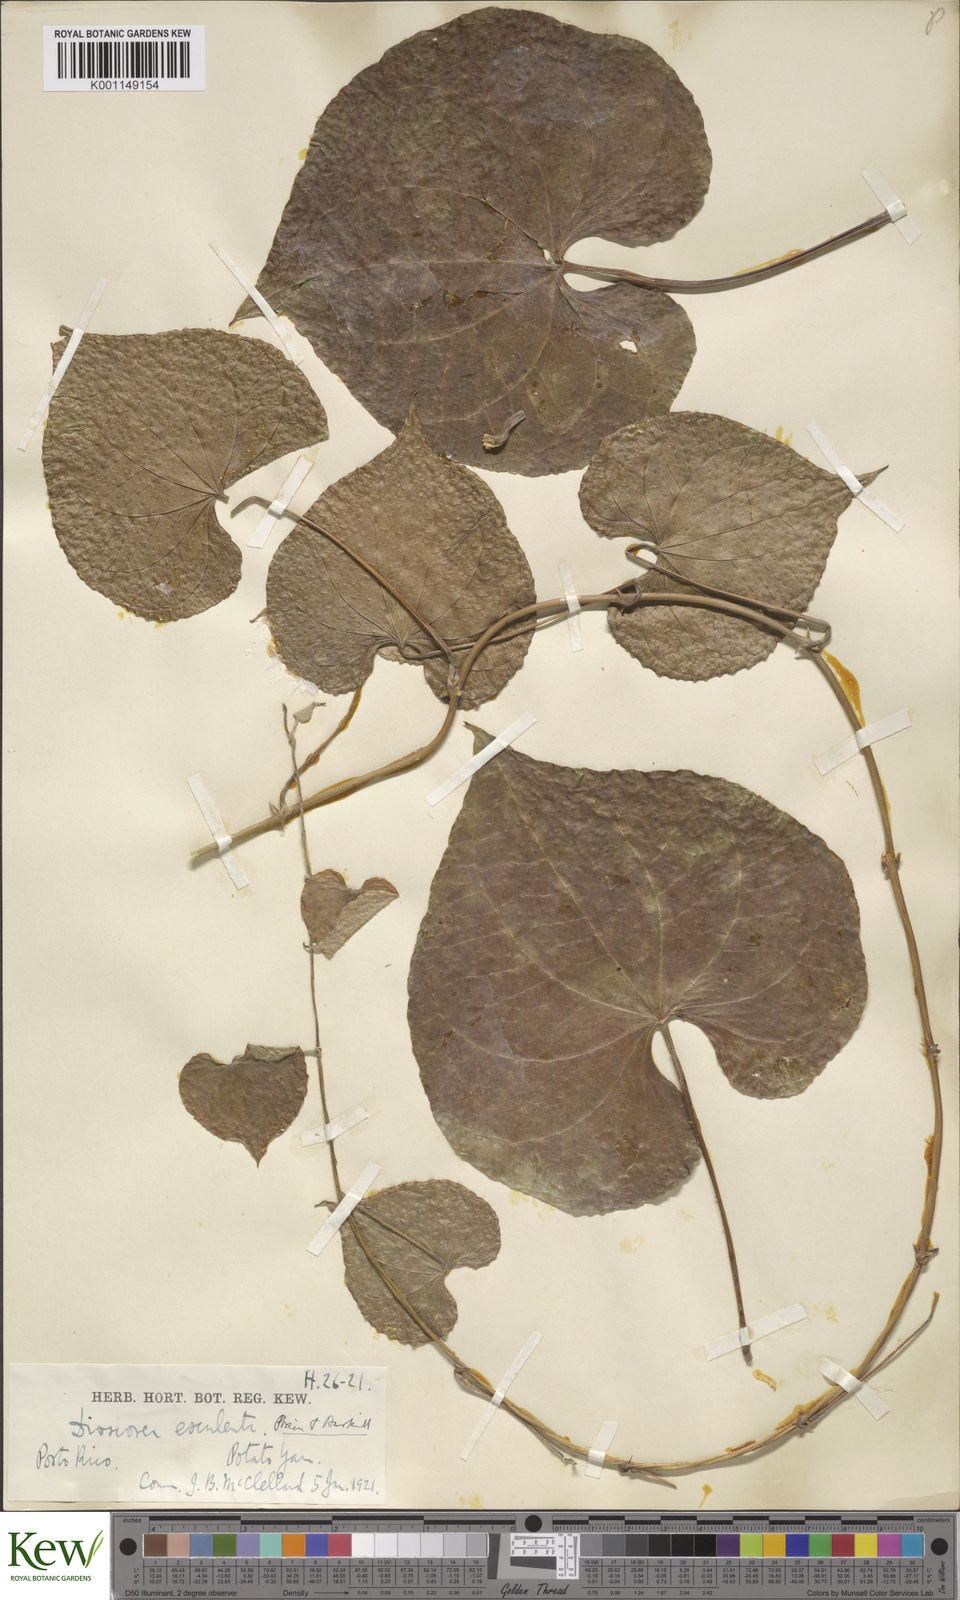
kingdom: Plantae
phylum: Tracheophyta
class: Liliopsida
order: Dioscoreales
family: Dioscoreaceae
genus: Dioscorea
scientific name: Dioscorea esculenta
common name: Chinese yam
